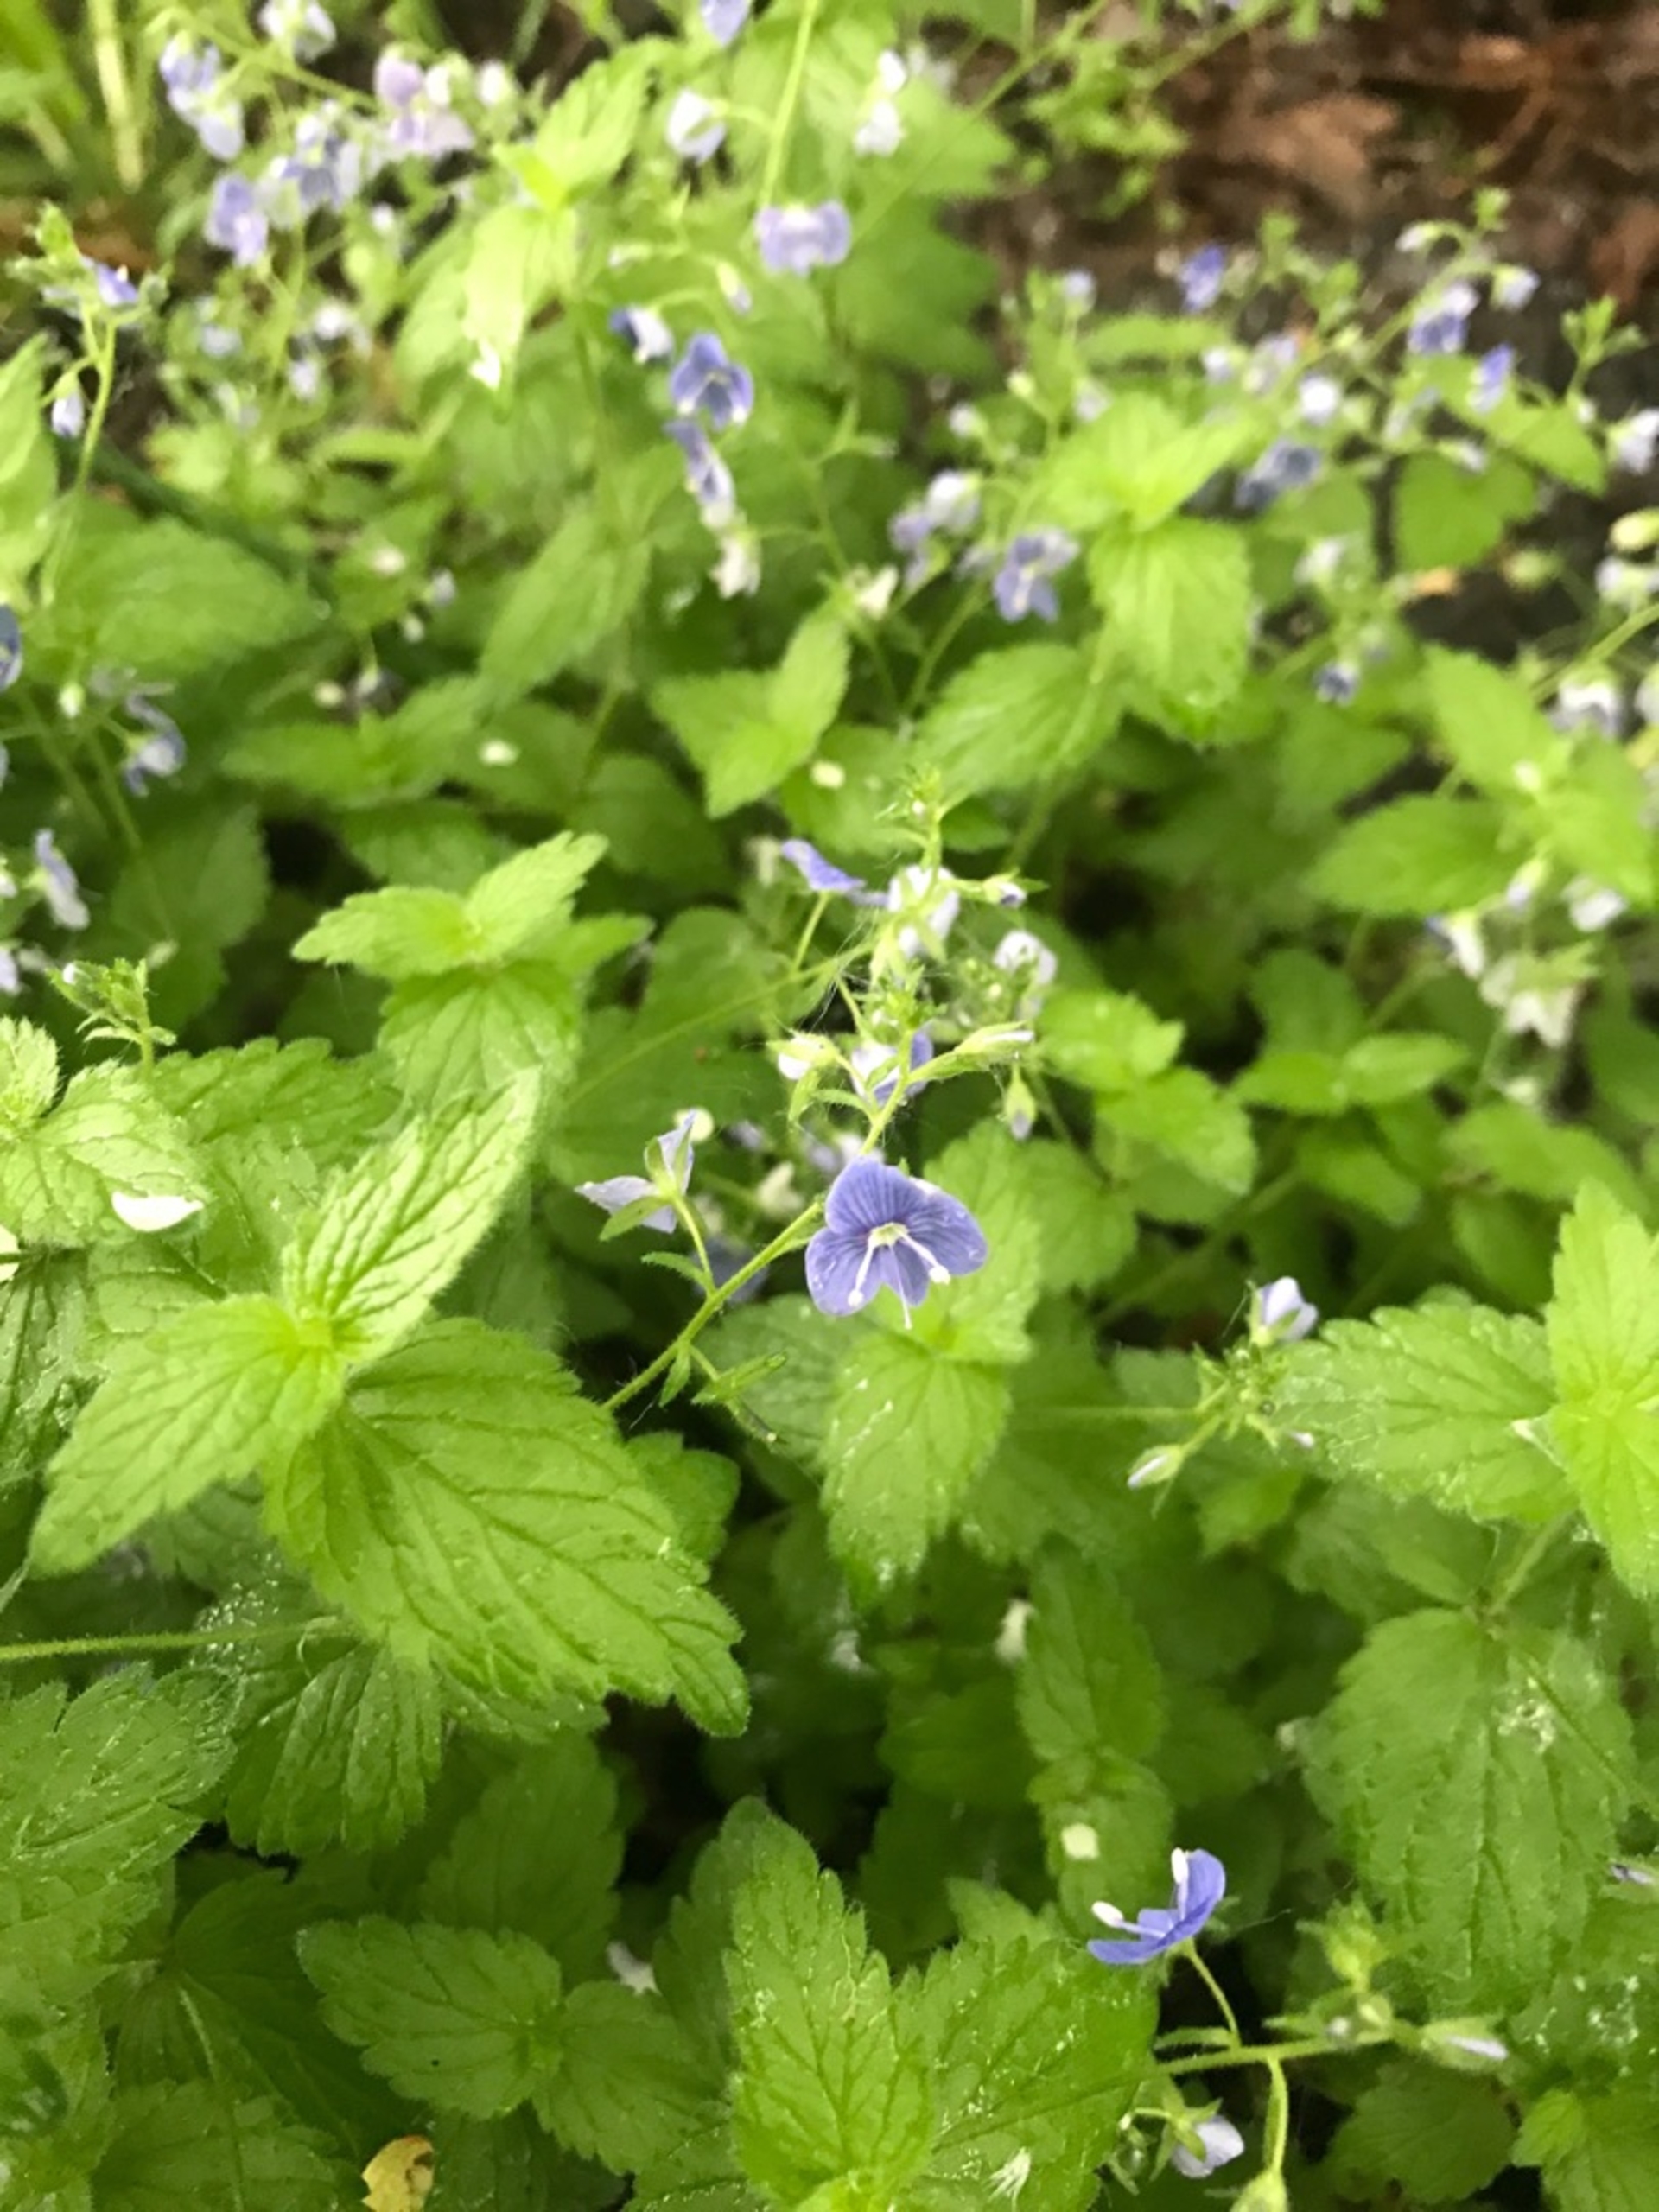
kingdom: Plantae
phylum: Tracheophyta
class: Magnoliopsida
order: Lamiales
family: Plantaginaceae
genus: Veronica
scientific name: Veronica chamaedrys
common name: Tveskægget ærenpris
